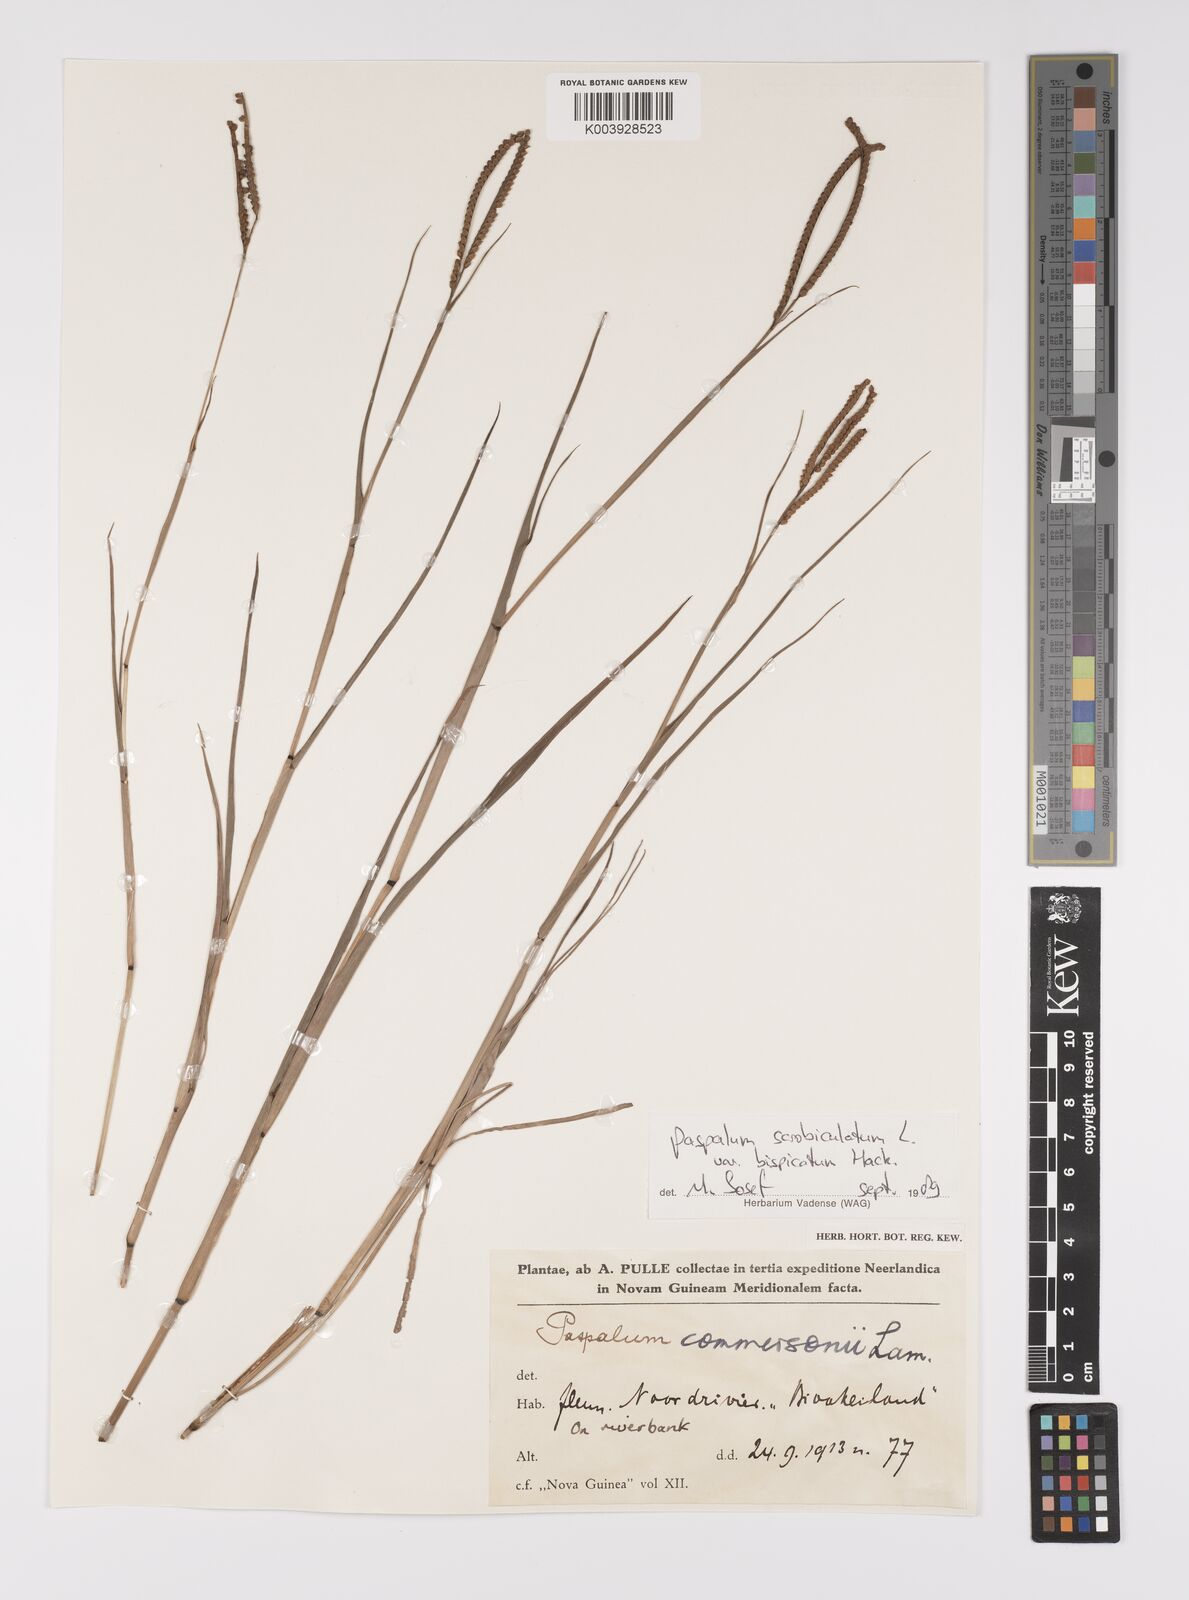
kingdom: Plantae
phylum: Tracheophyta
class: Liliopsida
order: Poales
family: Poaceae
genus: Paspalum
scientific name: Paspalum scrobiculatum
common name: Kodo millet
